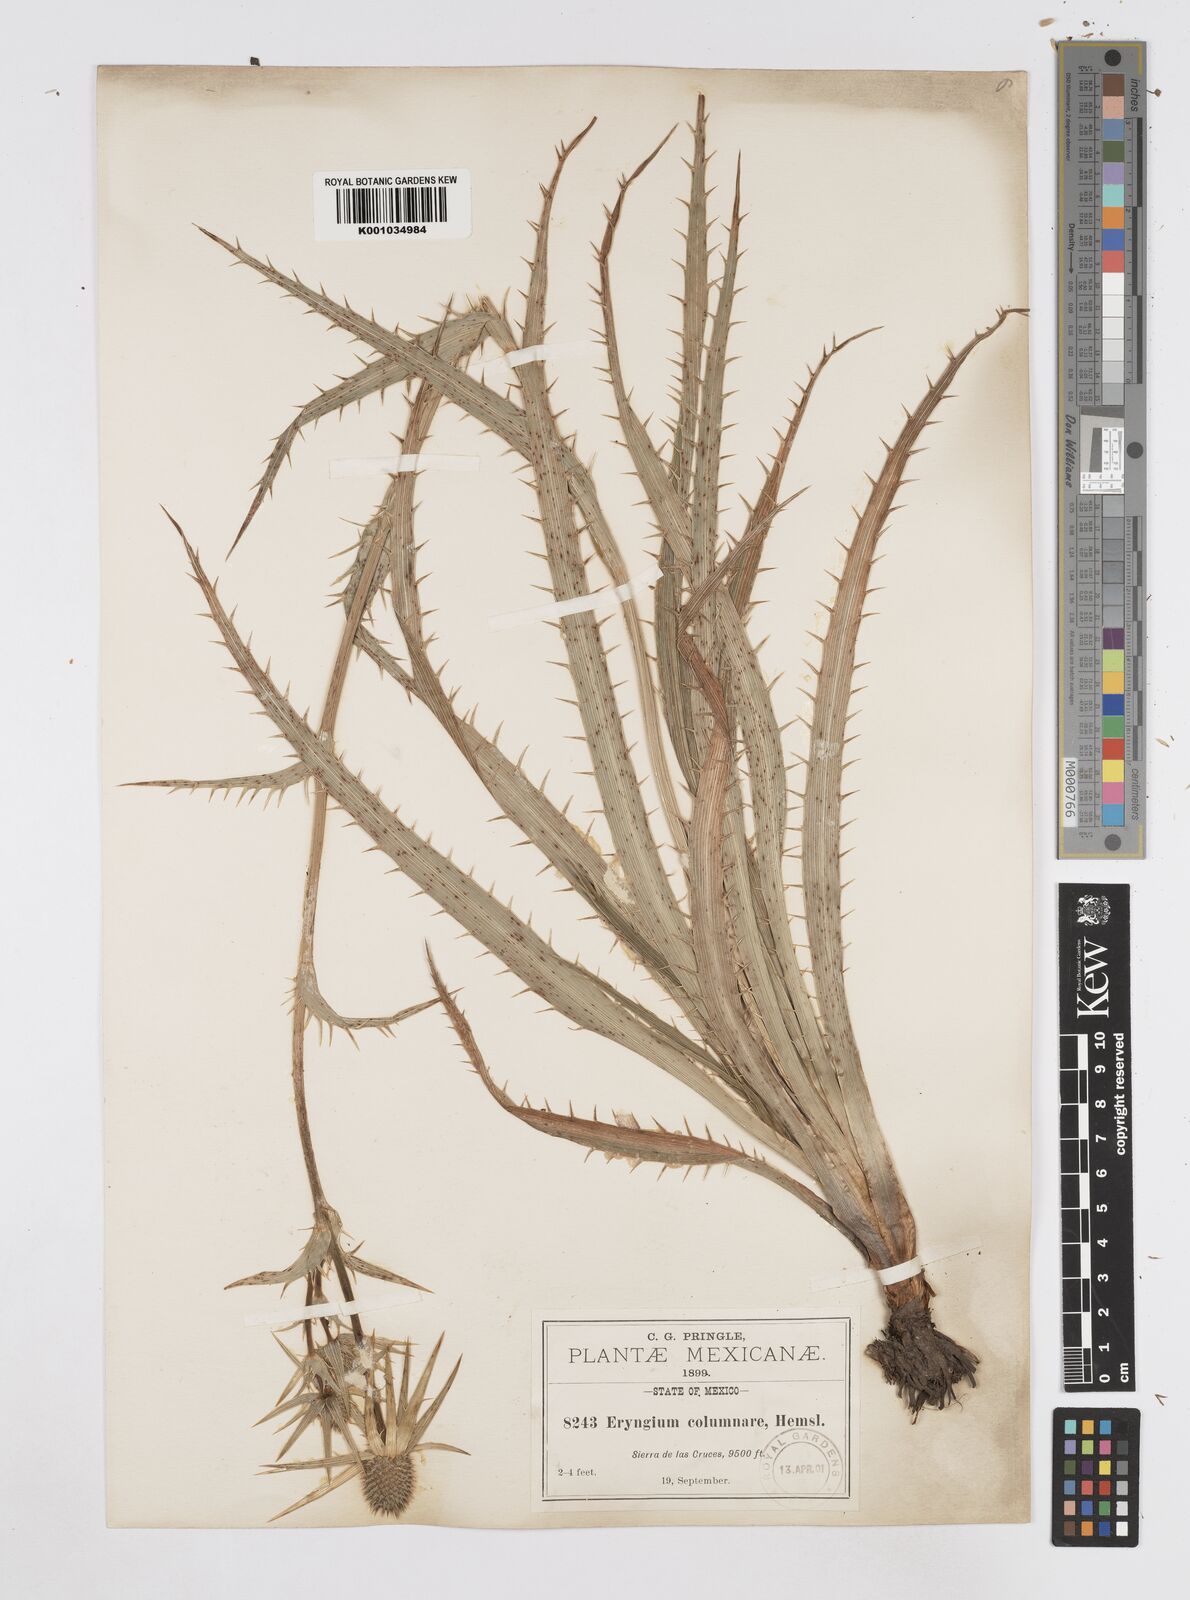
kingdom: Plantae
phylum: Tracheophyta
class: Magnoliopsida
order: Apiales
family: Apiaceae
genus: Eryngium
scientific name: Eryngium columnare
